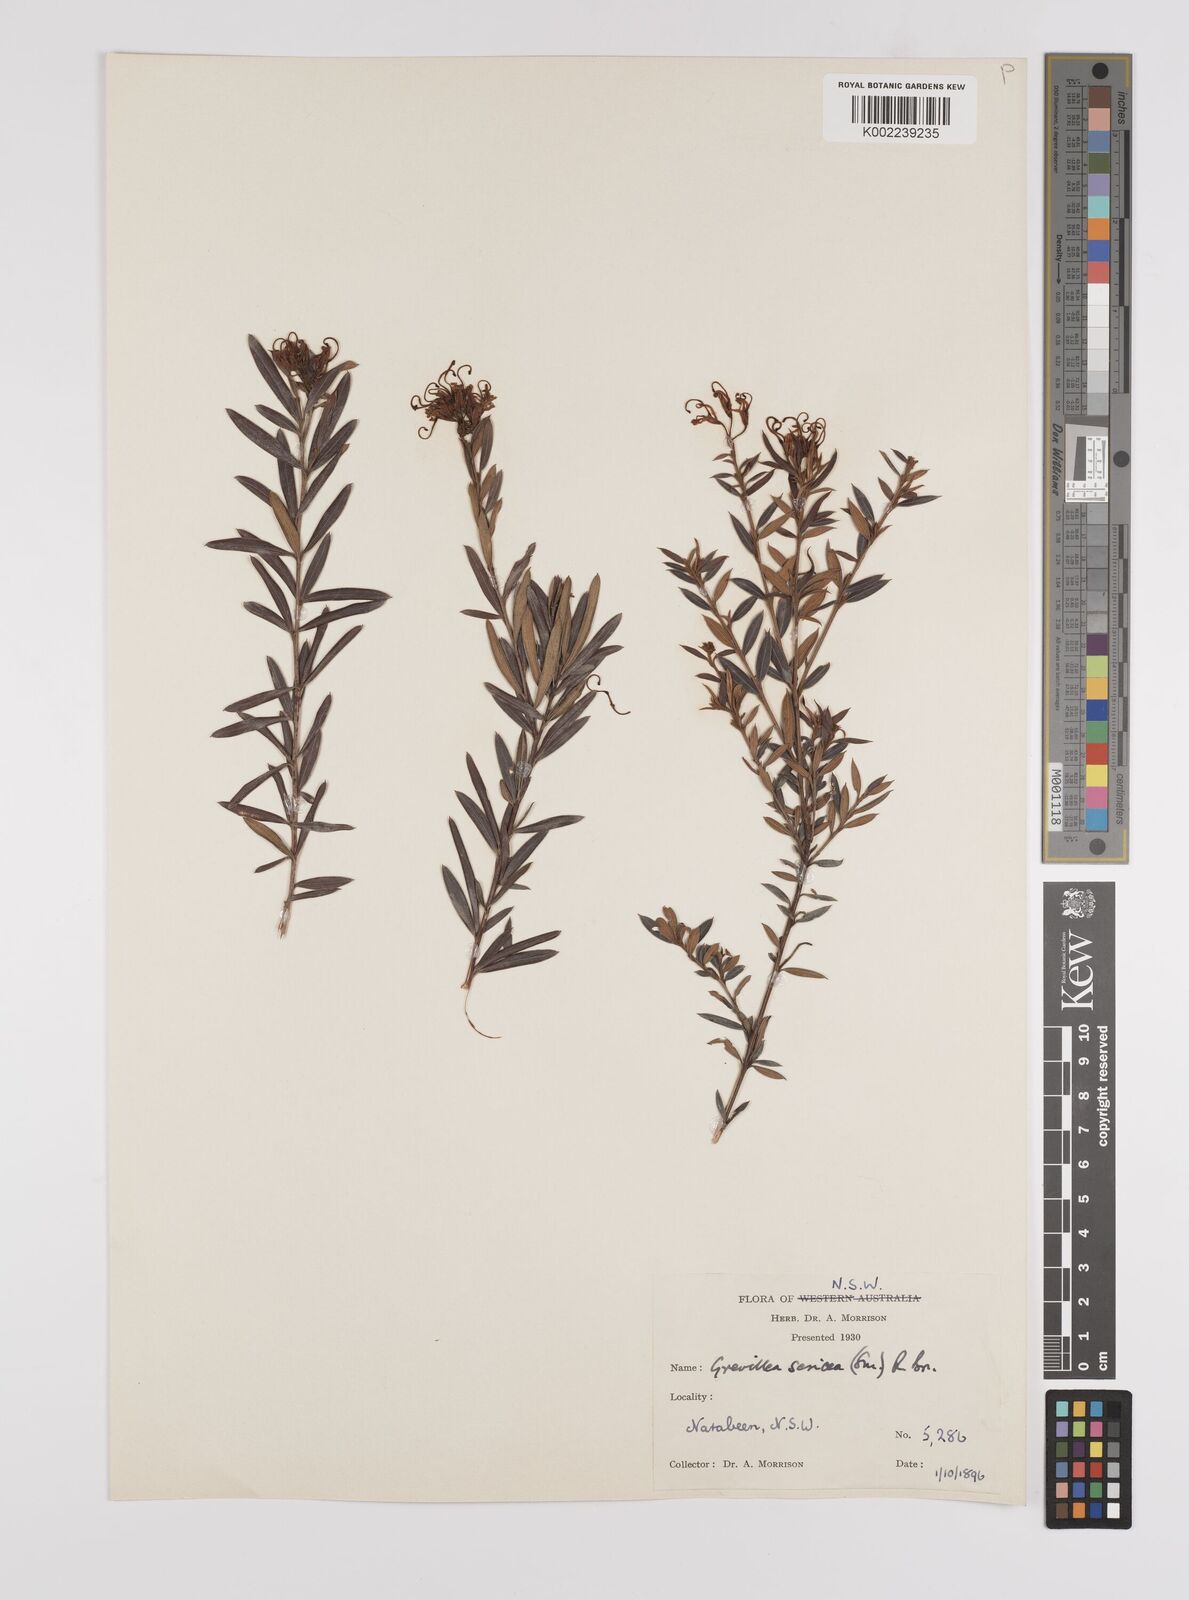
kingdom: Plantae
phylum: Tracheophyta
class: Magnoliopsida
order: Proteales
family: Proteaceae
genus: Grevillea
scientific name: Grevillea sericea
